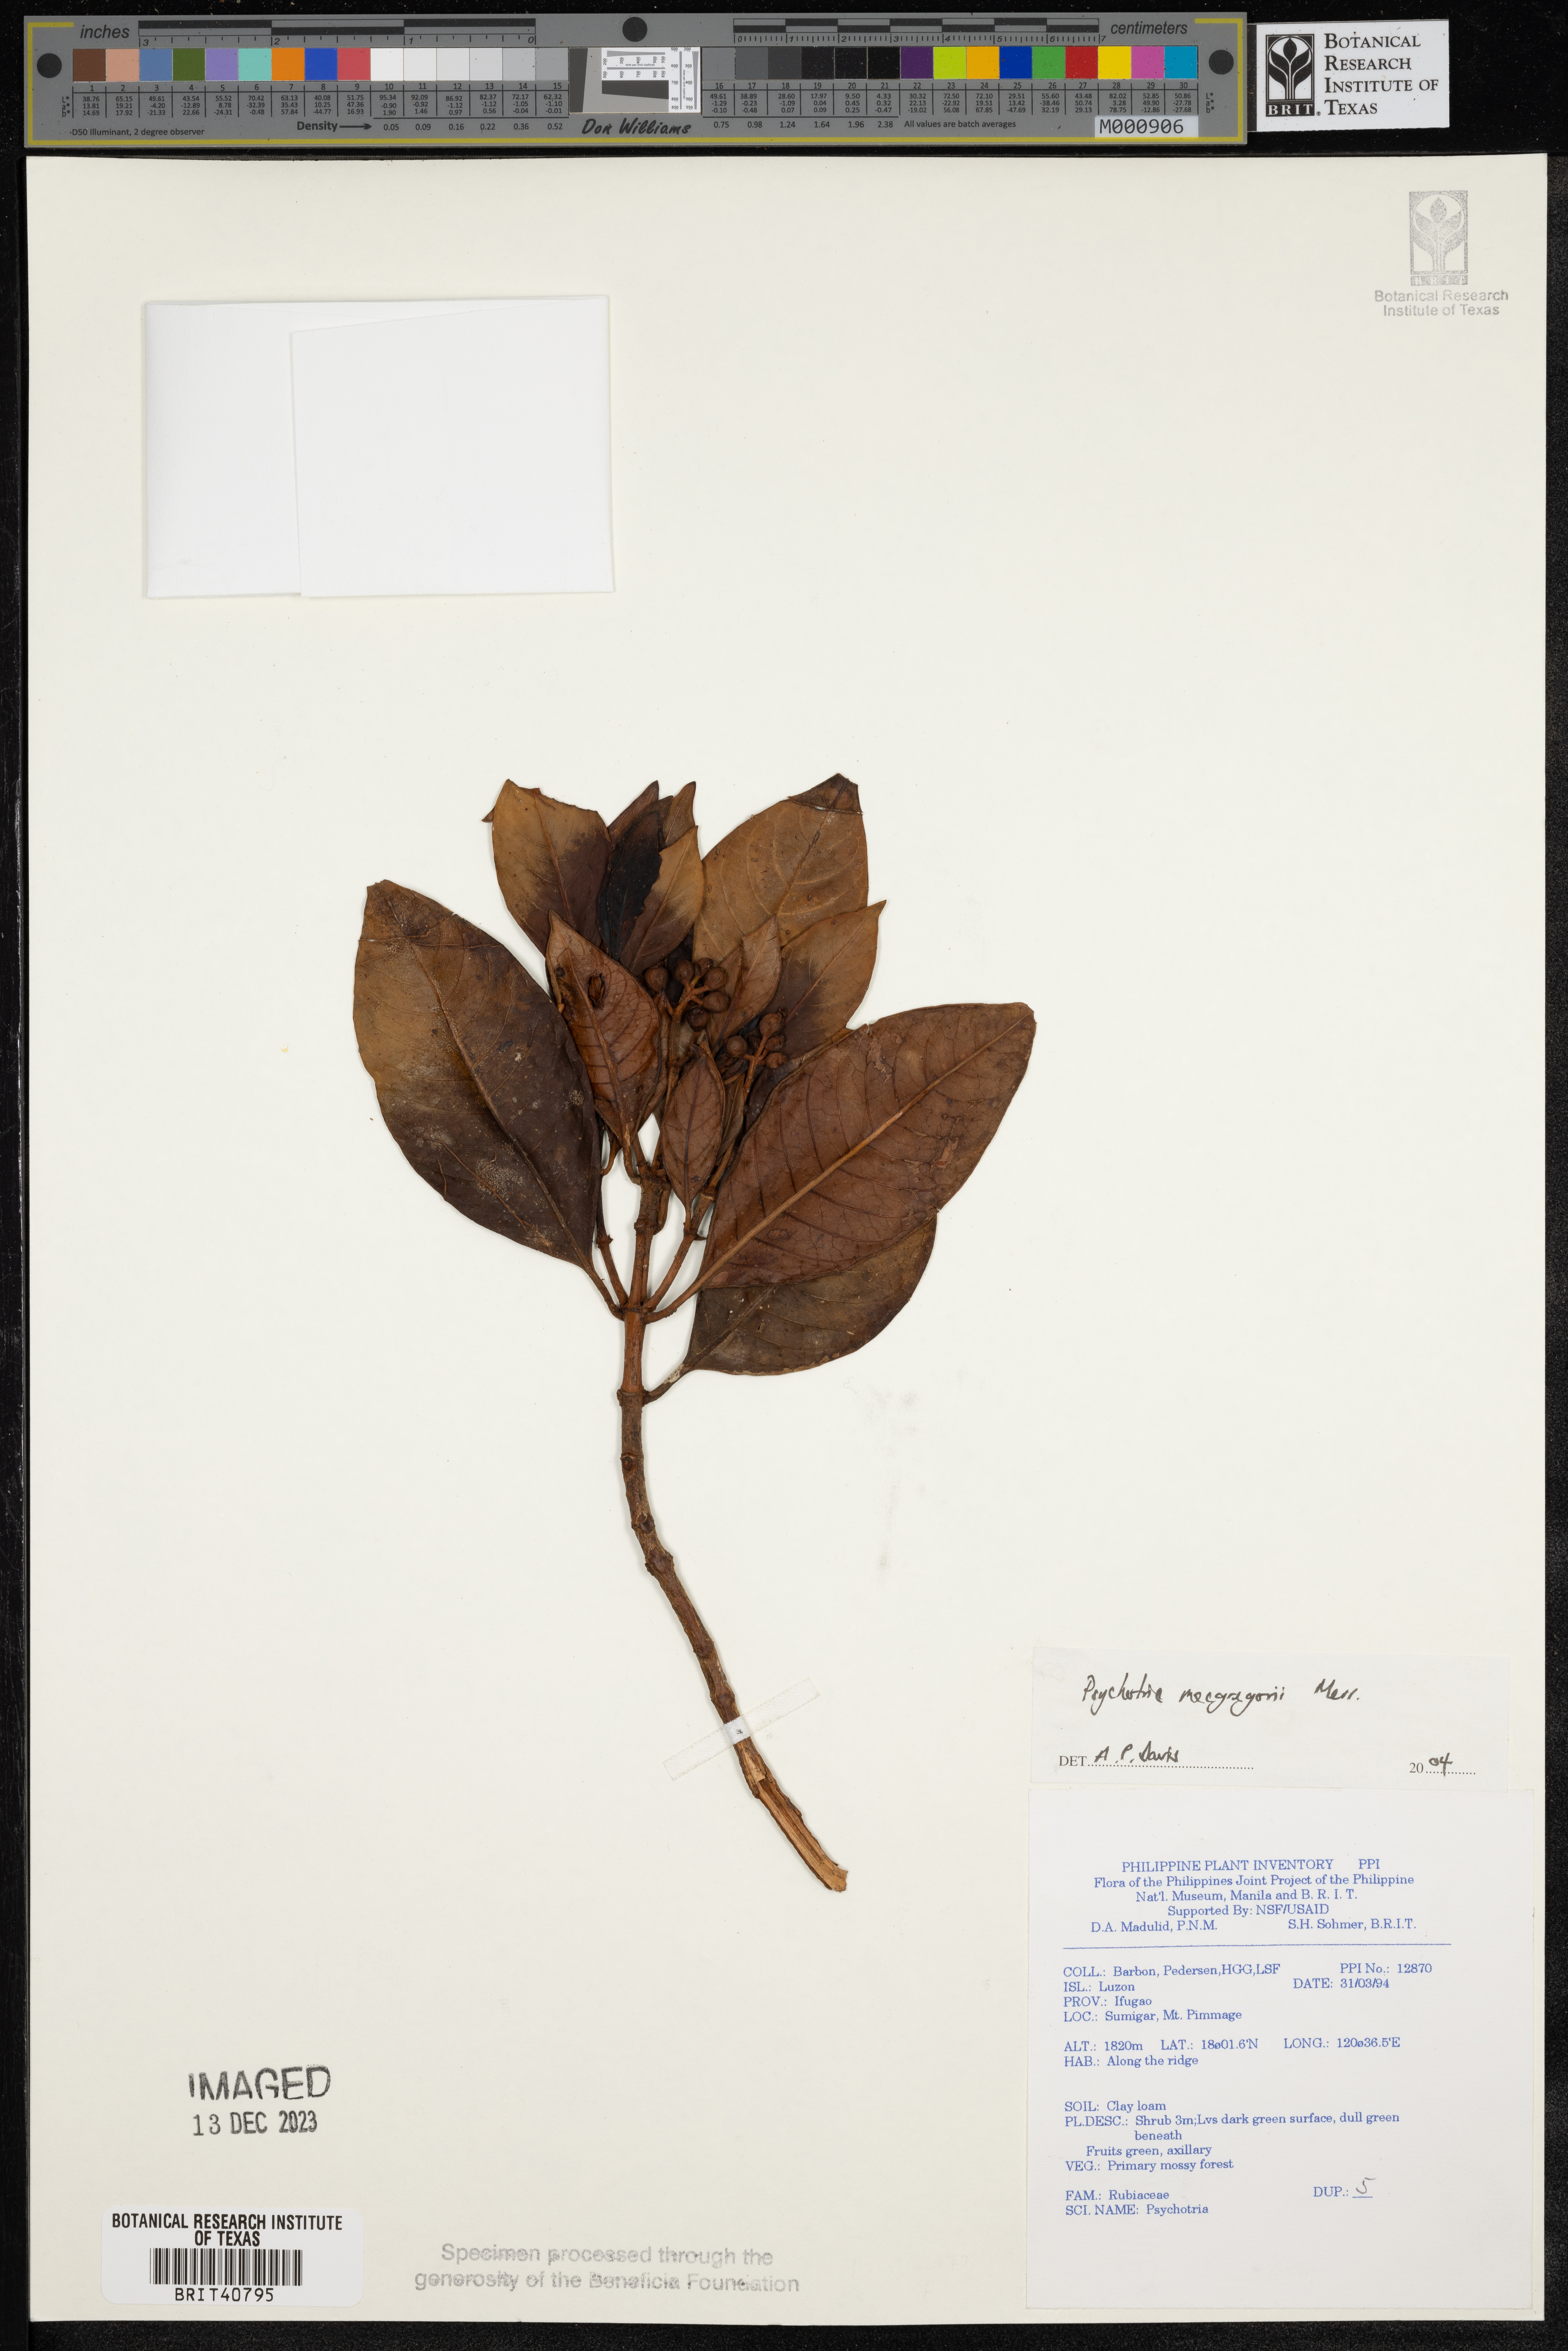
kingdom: Plantae
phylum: Tracheophyta
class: Magnoliopsida
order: Gentianales
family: Rubiaceae
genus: Psychotria
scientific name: Psychotria macgregorii
